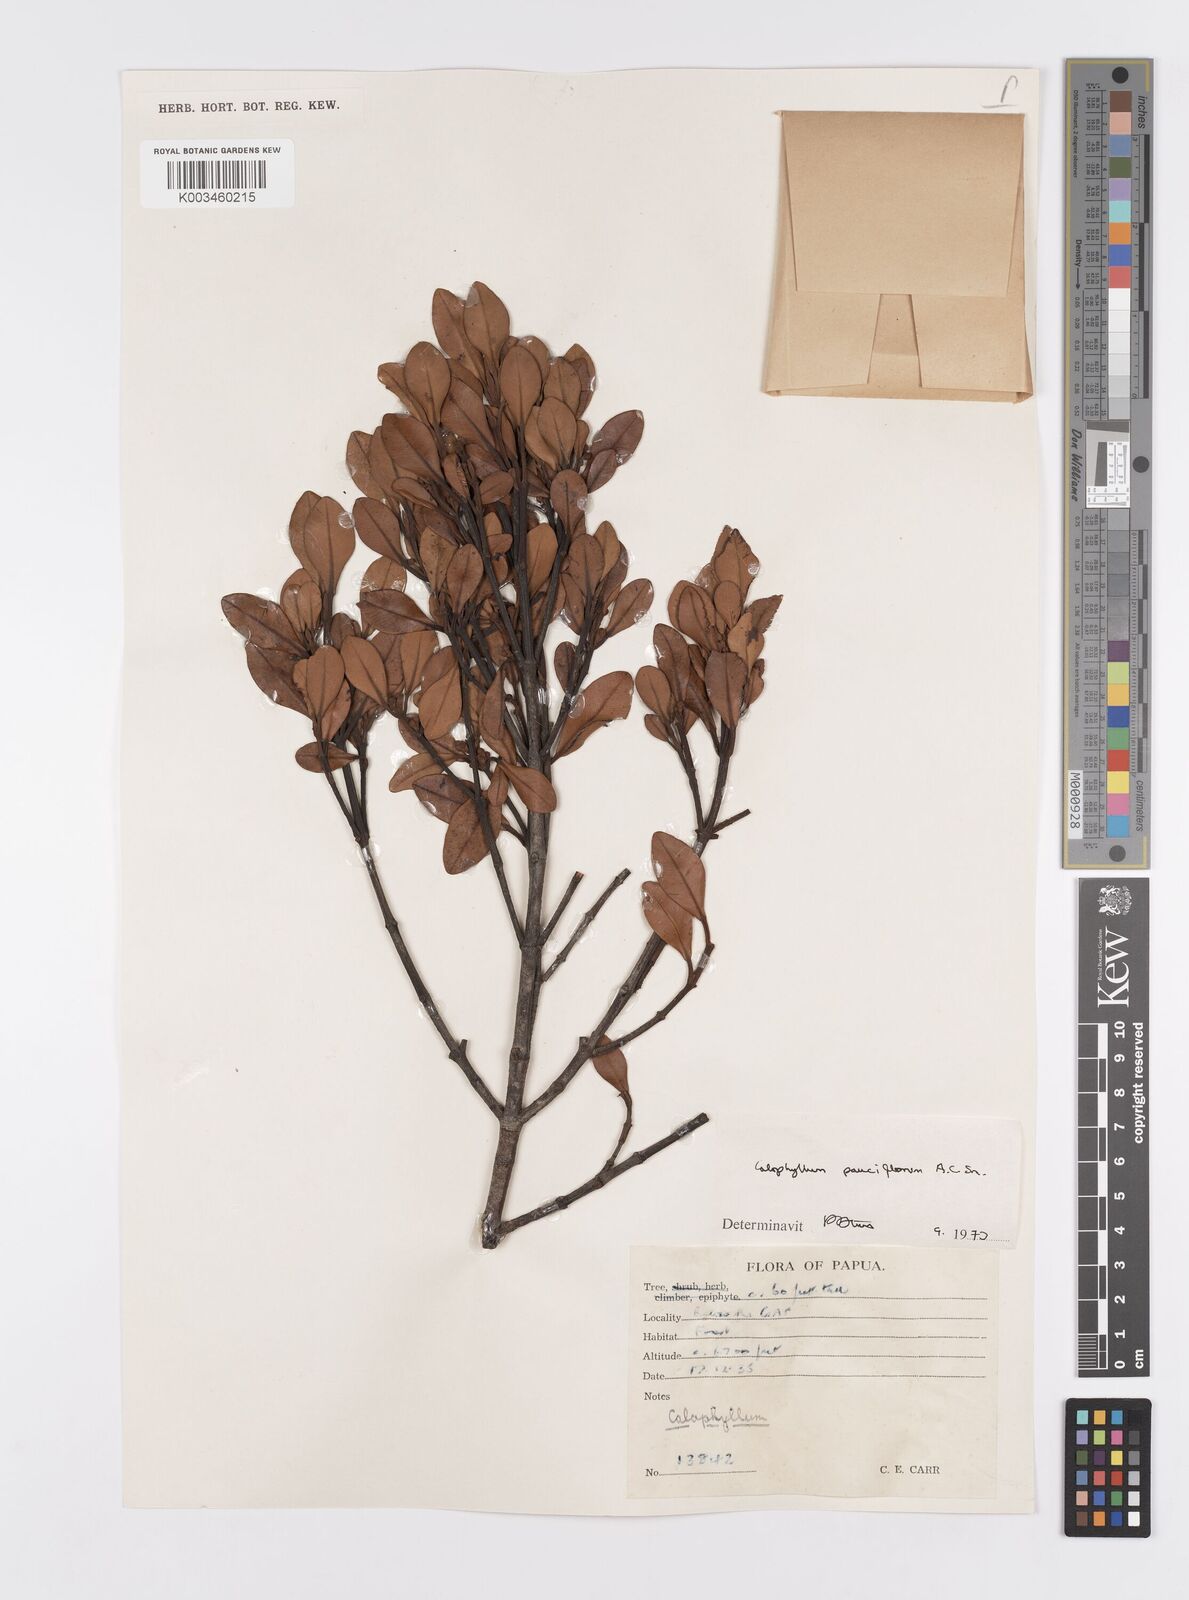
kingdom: Plantae
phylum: Tracheophyta
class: Magnoliopsida
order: Malpighiales
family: Calophyllaceae
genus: Calophyllum
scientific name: Calophyllum parviflorum
